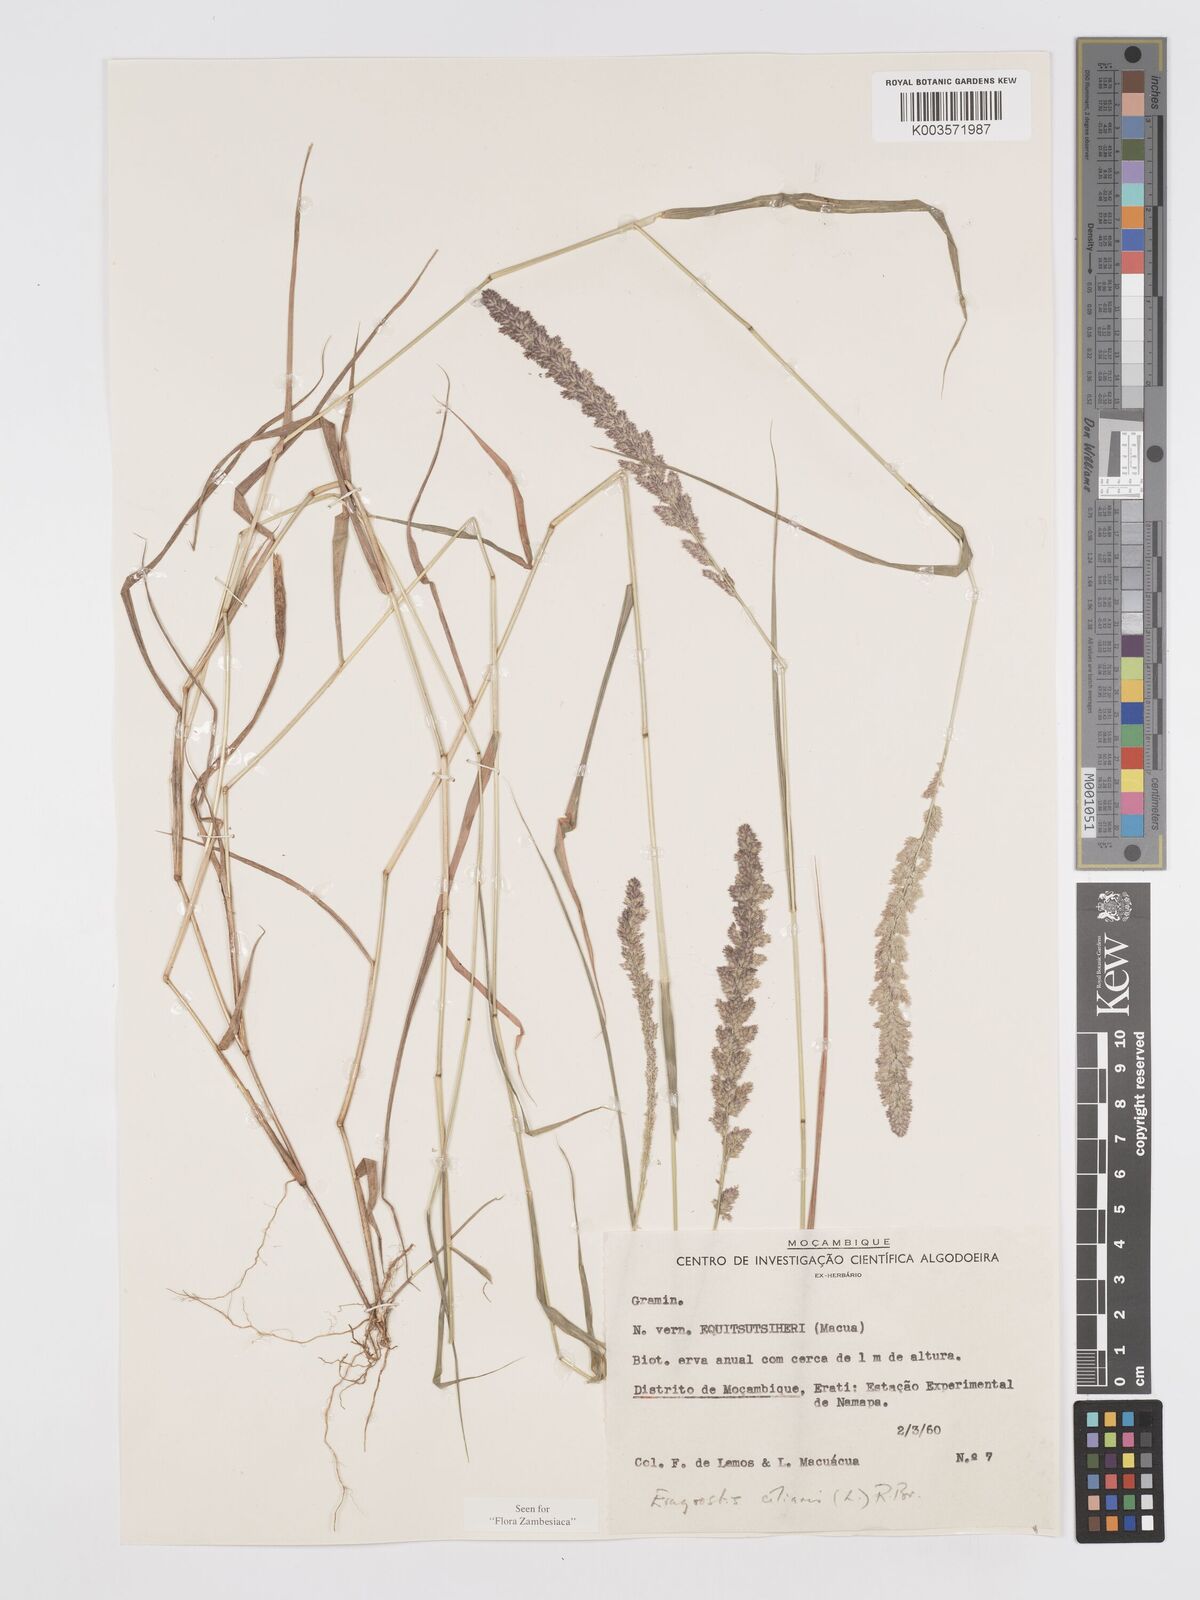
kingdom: Plantae
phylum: Tracheophyta
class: Liliopsida
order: Poales
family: Poaceae
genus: Eragrostis
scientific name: Eragrostis ciliaris
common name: Gophertail lovegrass
